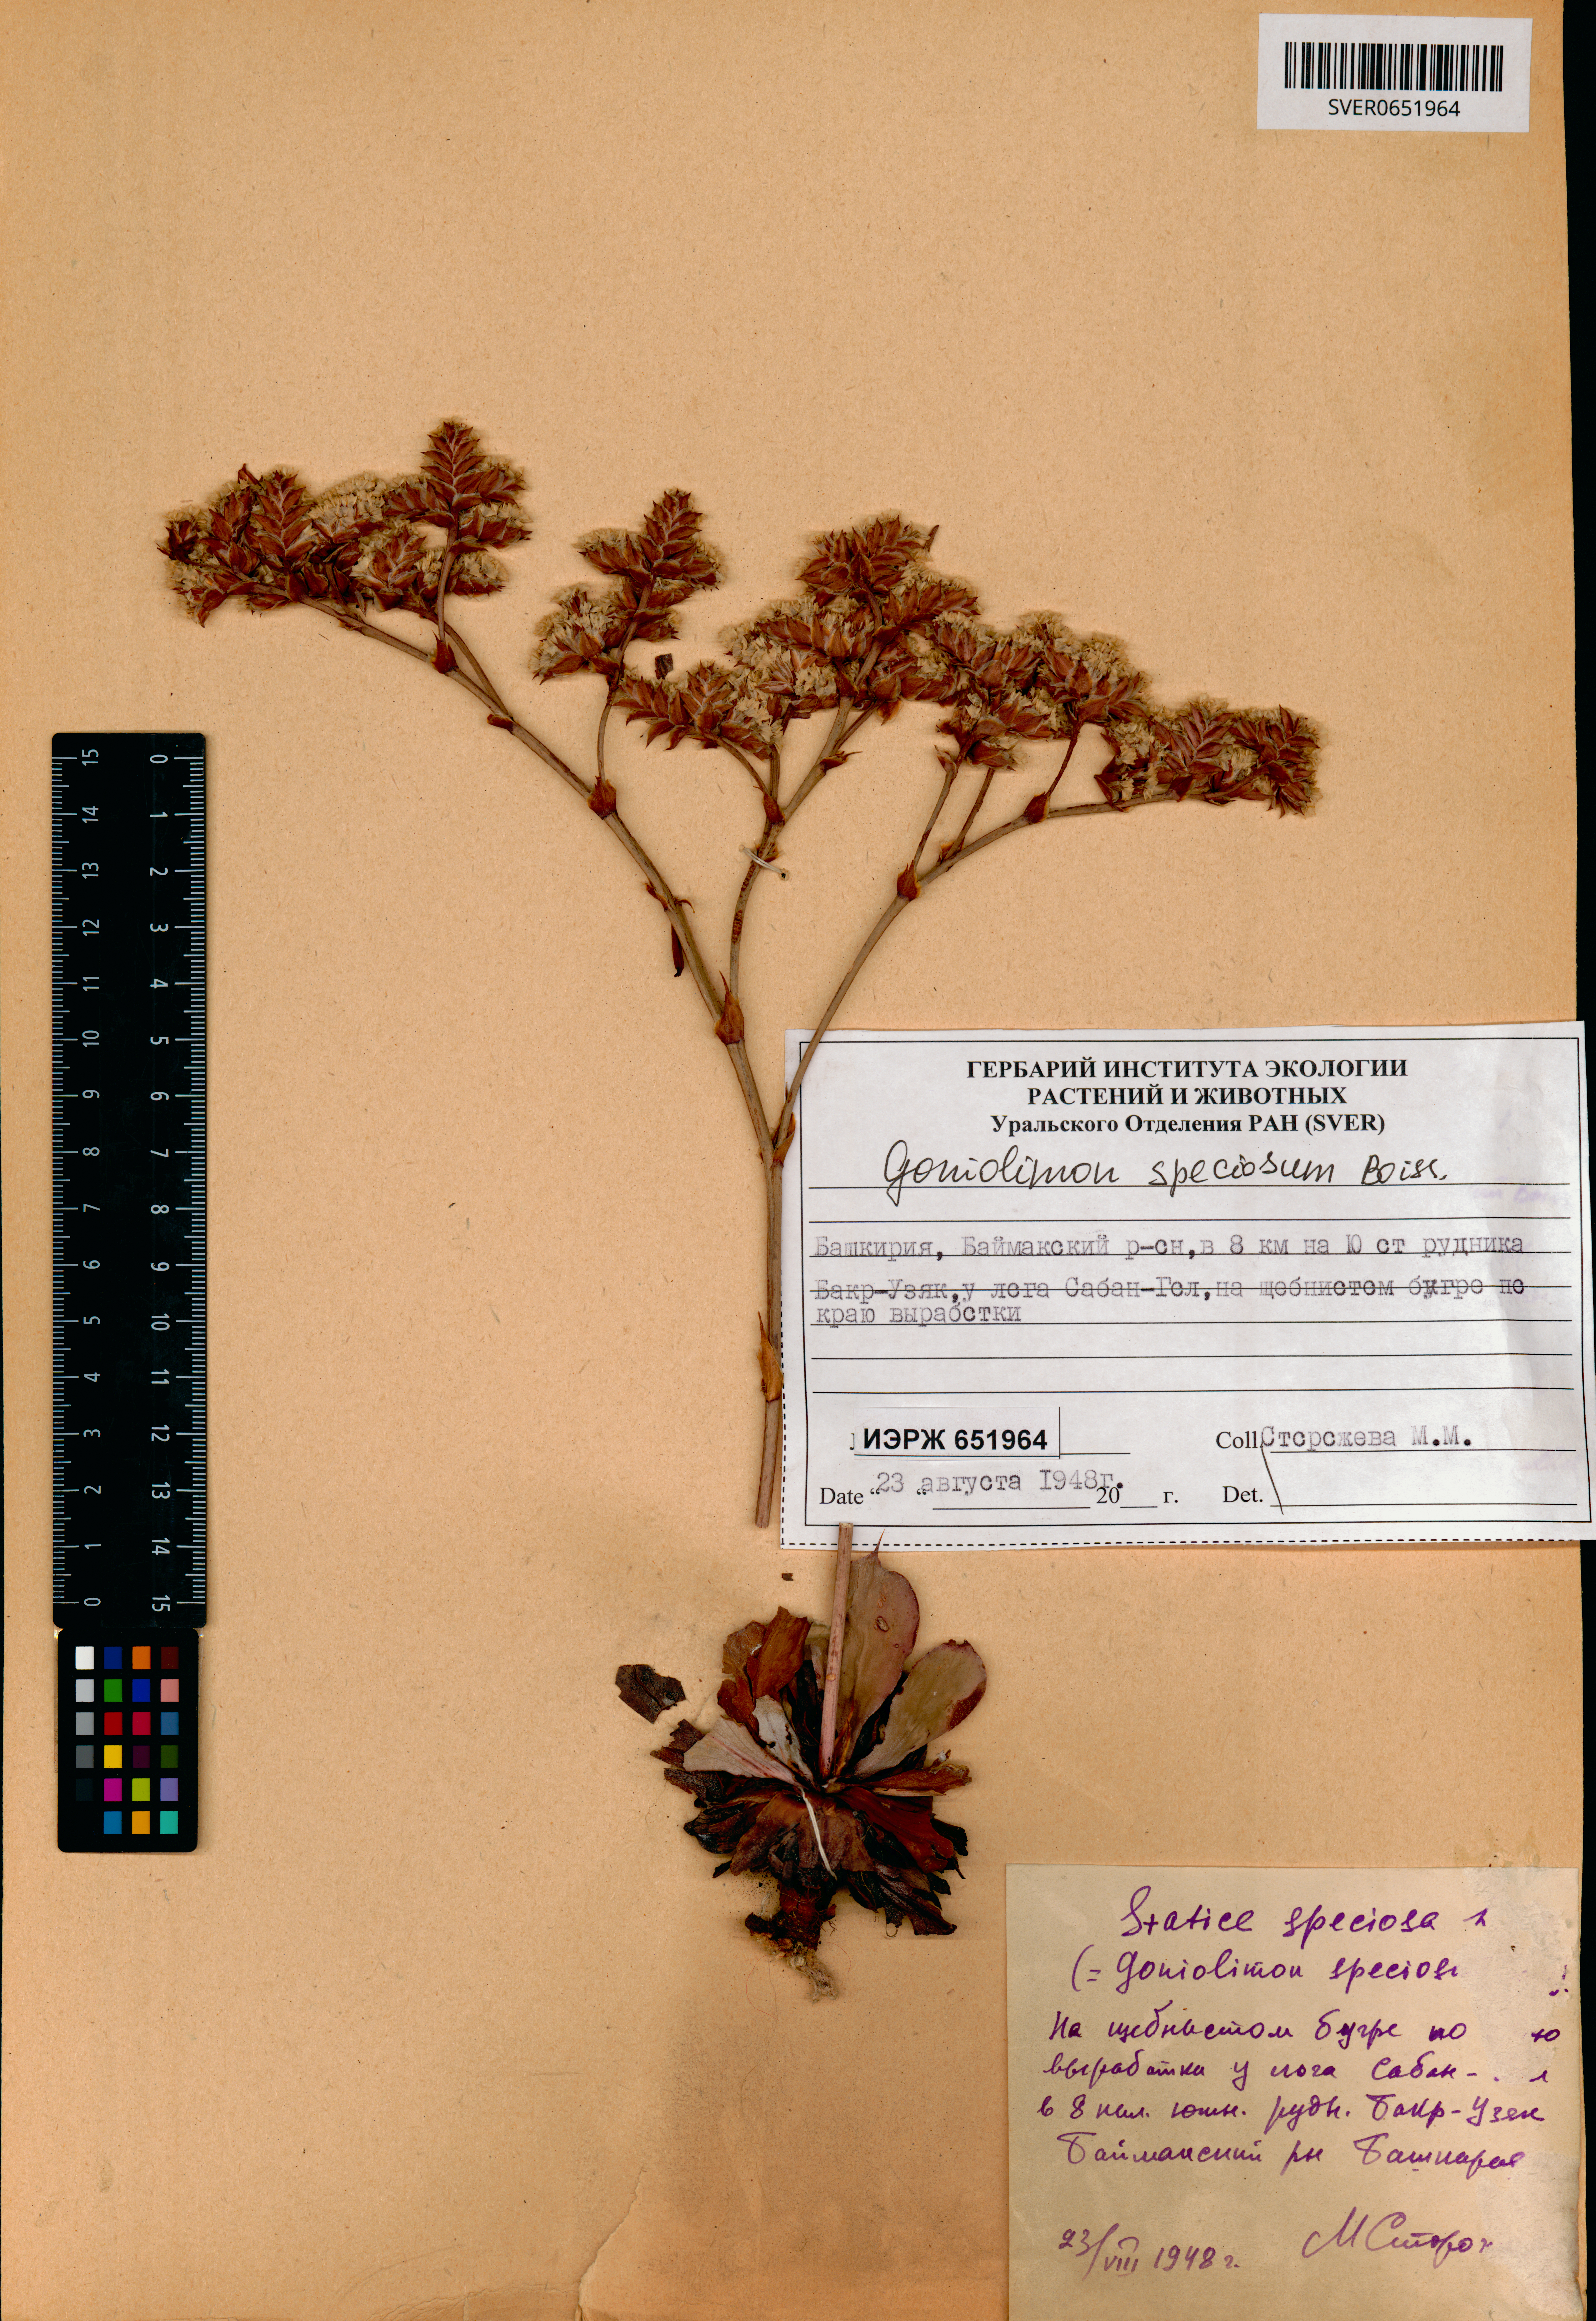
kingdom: Plantae
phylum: Tracheophyta
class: Magnoliopsida
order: Caryophyllales
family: Plumbaginaceae
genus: Goniolimon
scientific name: Goniolimon speciosum
